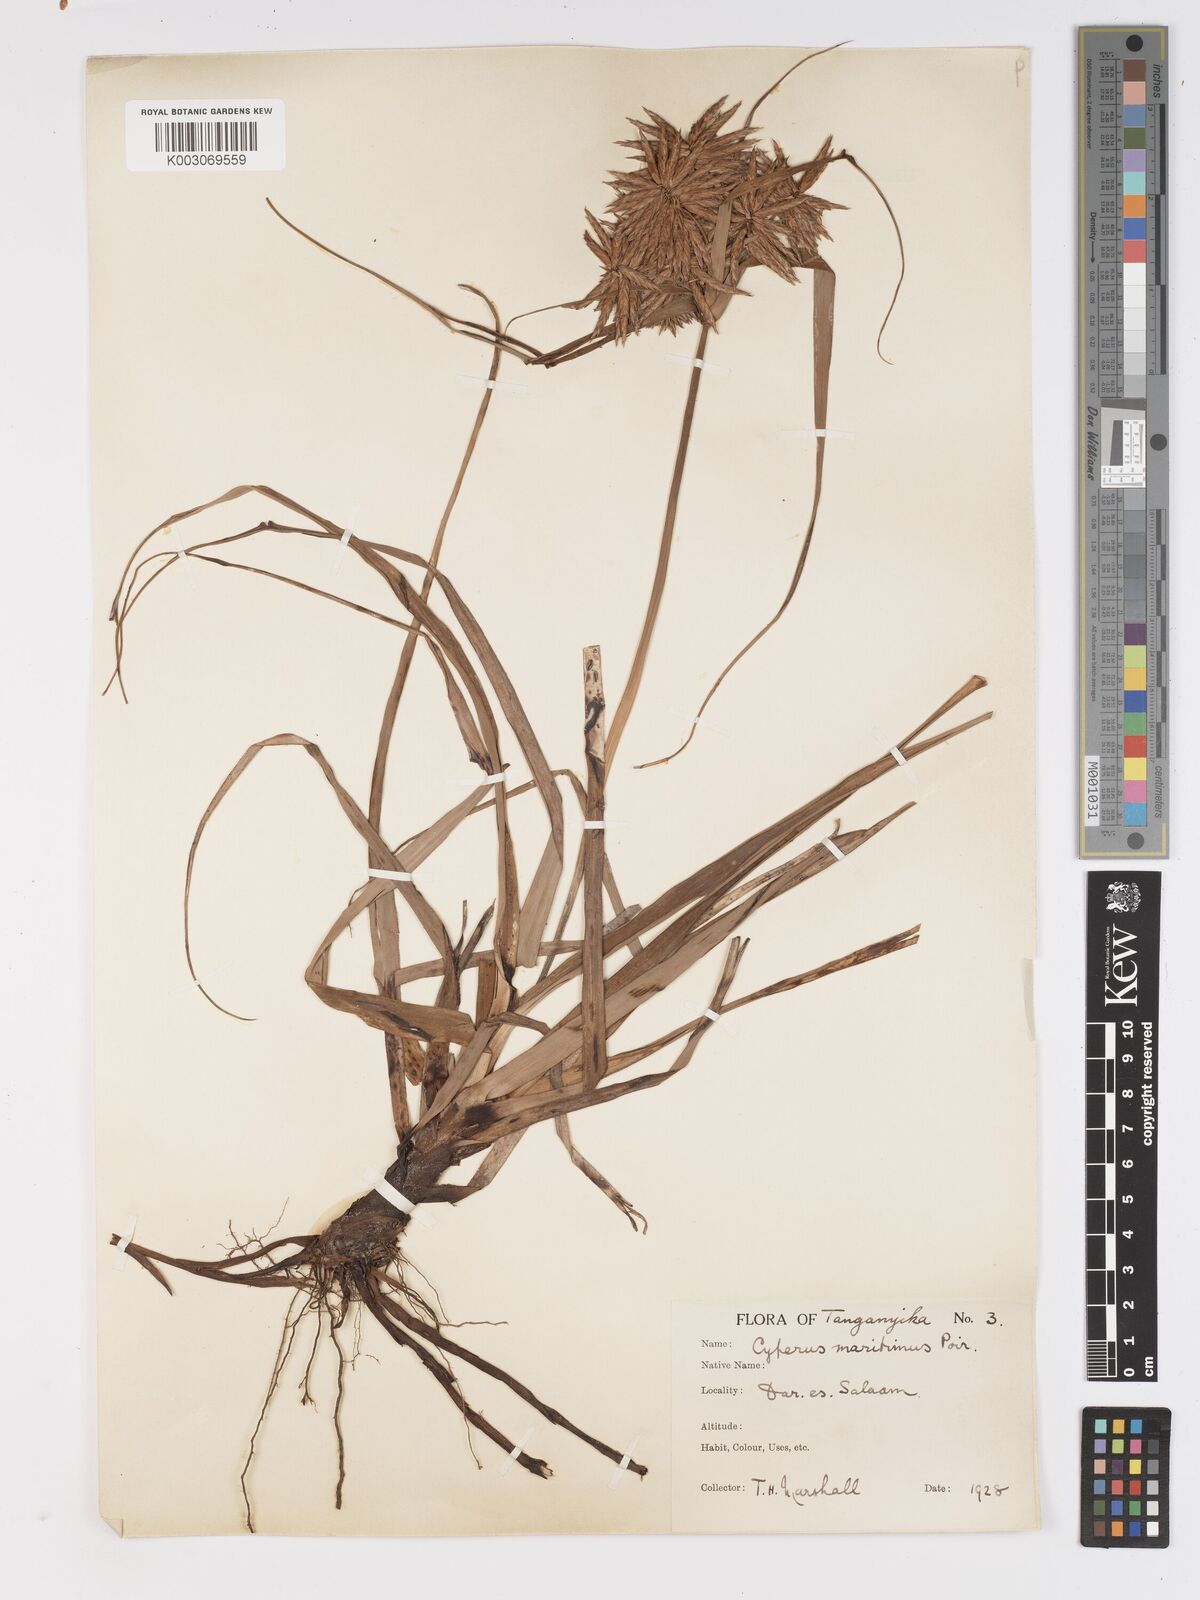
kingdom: Plantae
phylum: Tracheophyta
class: Liliopsida
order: Poales
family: Cyperaceae
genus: Cyperus
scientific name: Cyperus crassipes
